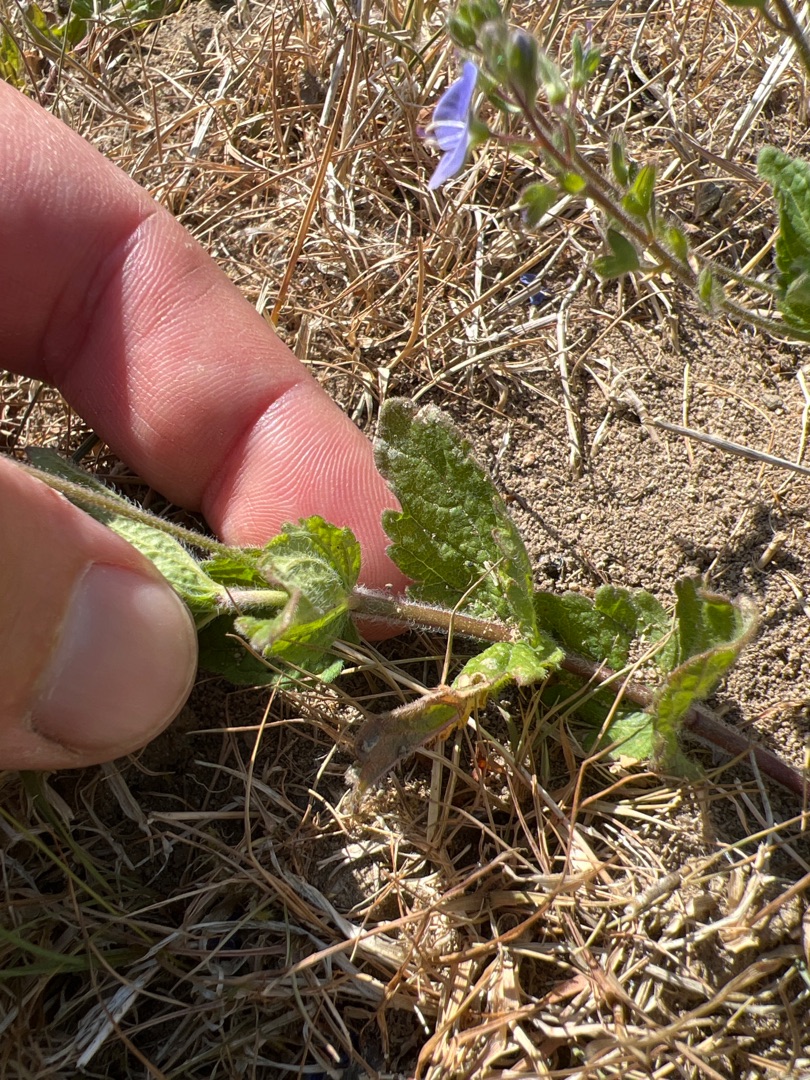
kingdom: Plantae
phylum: Tracheophyta
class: Magnoliopsida
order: Lamiales
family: Plantaginaceae
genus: Veronica
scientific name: Veronica chamaedrys
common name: Tveskægget ærenpris
